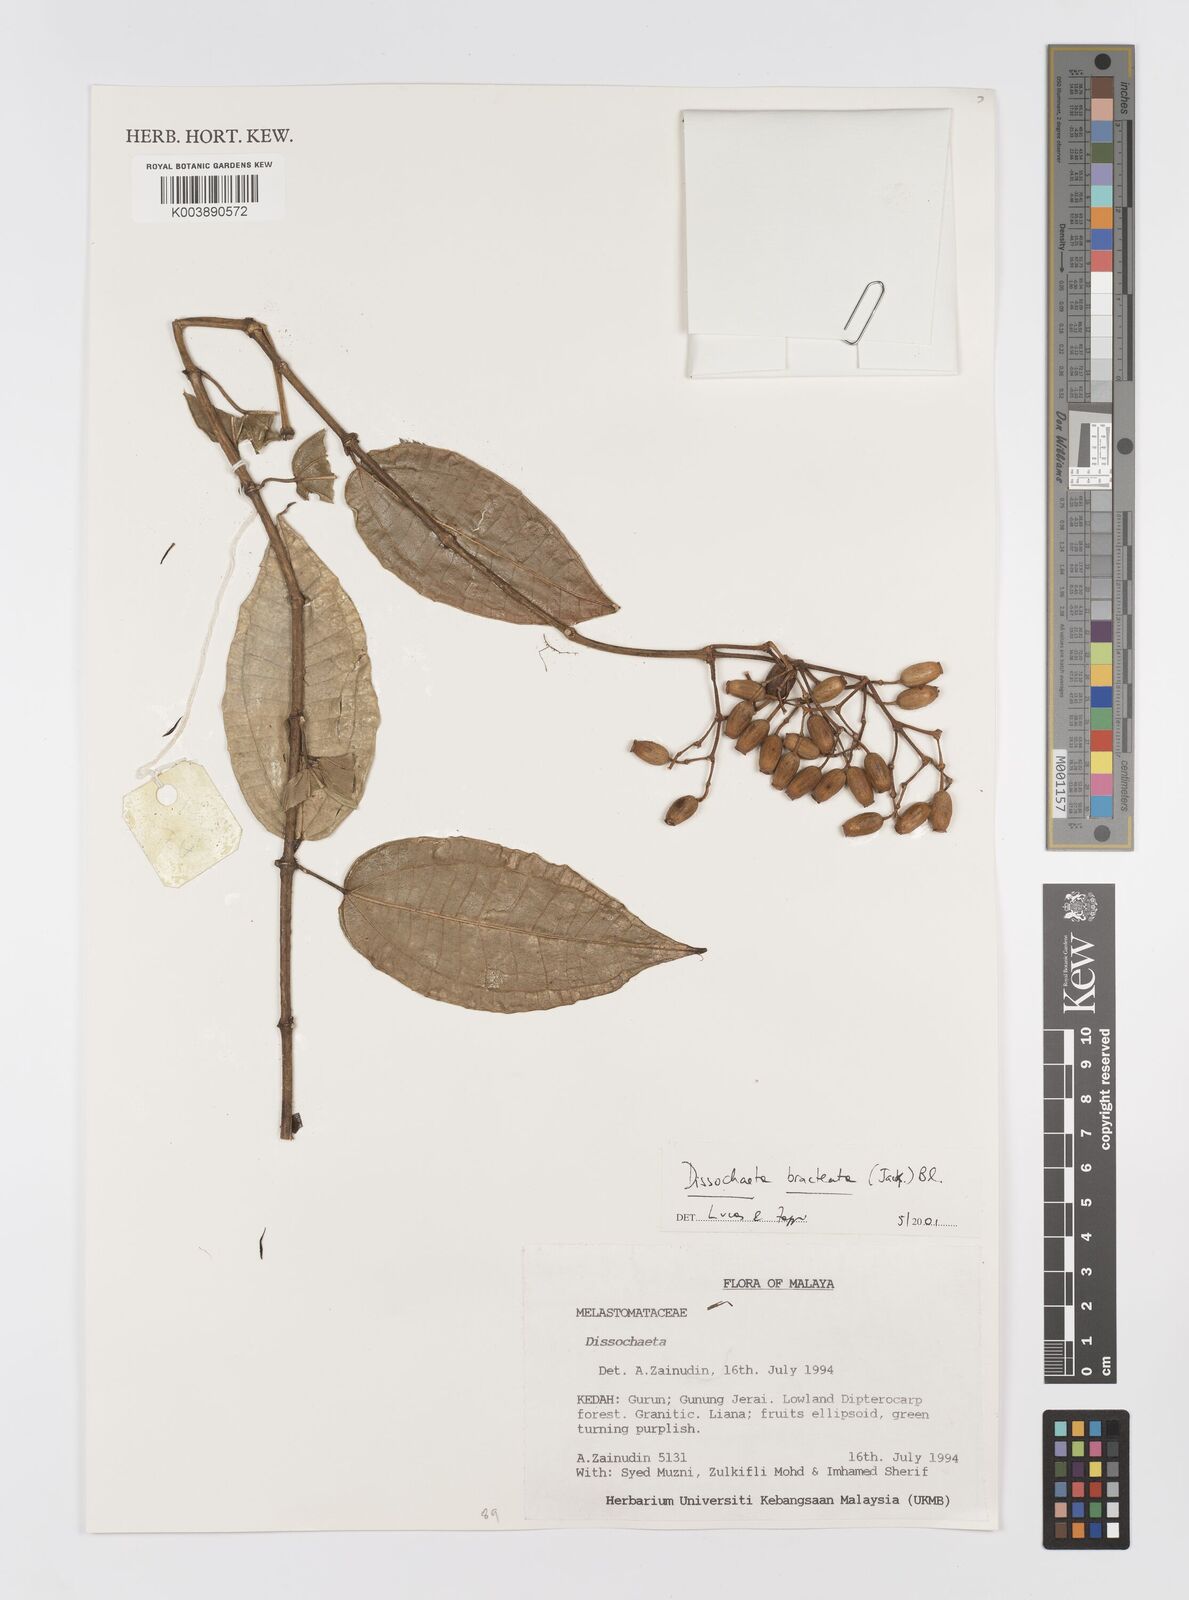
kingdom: Plantae
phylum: Tracheophyta
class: Magnoliopsida
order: Myrtales
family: Melastomataceae
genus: Dissochaeta
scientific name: Dissochaeta bracteata
